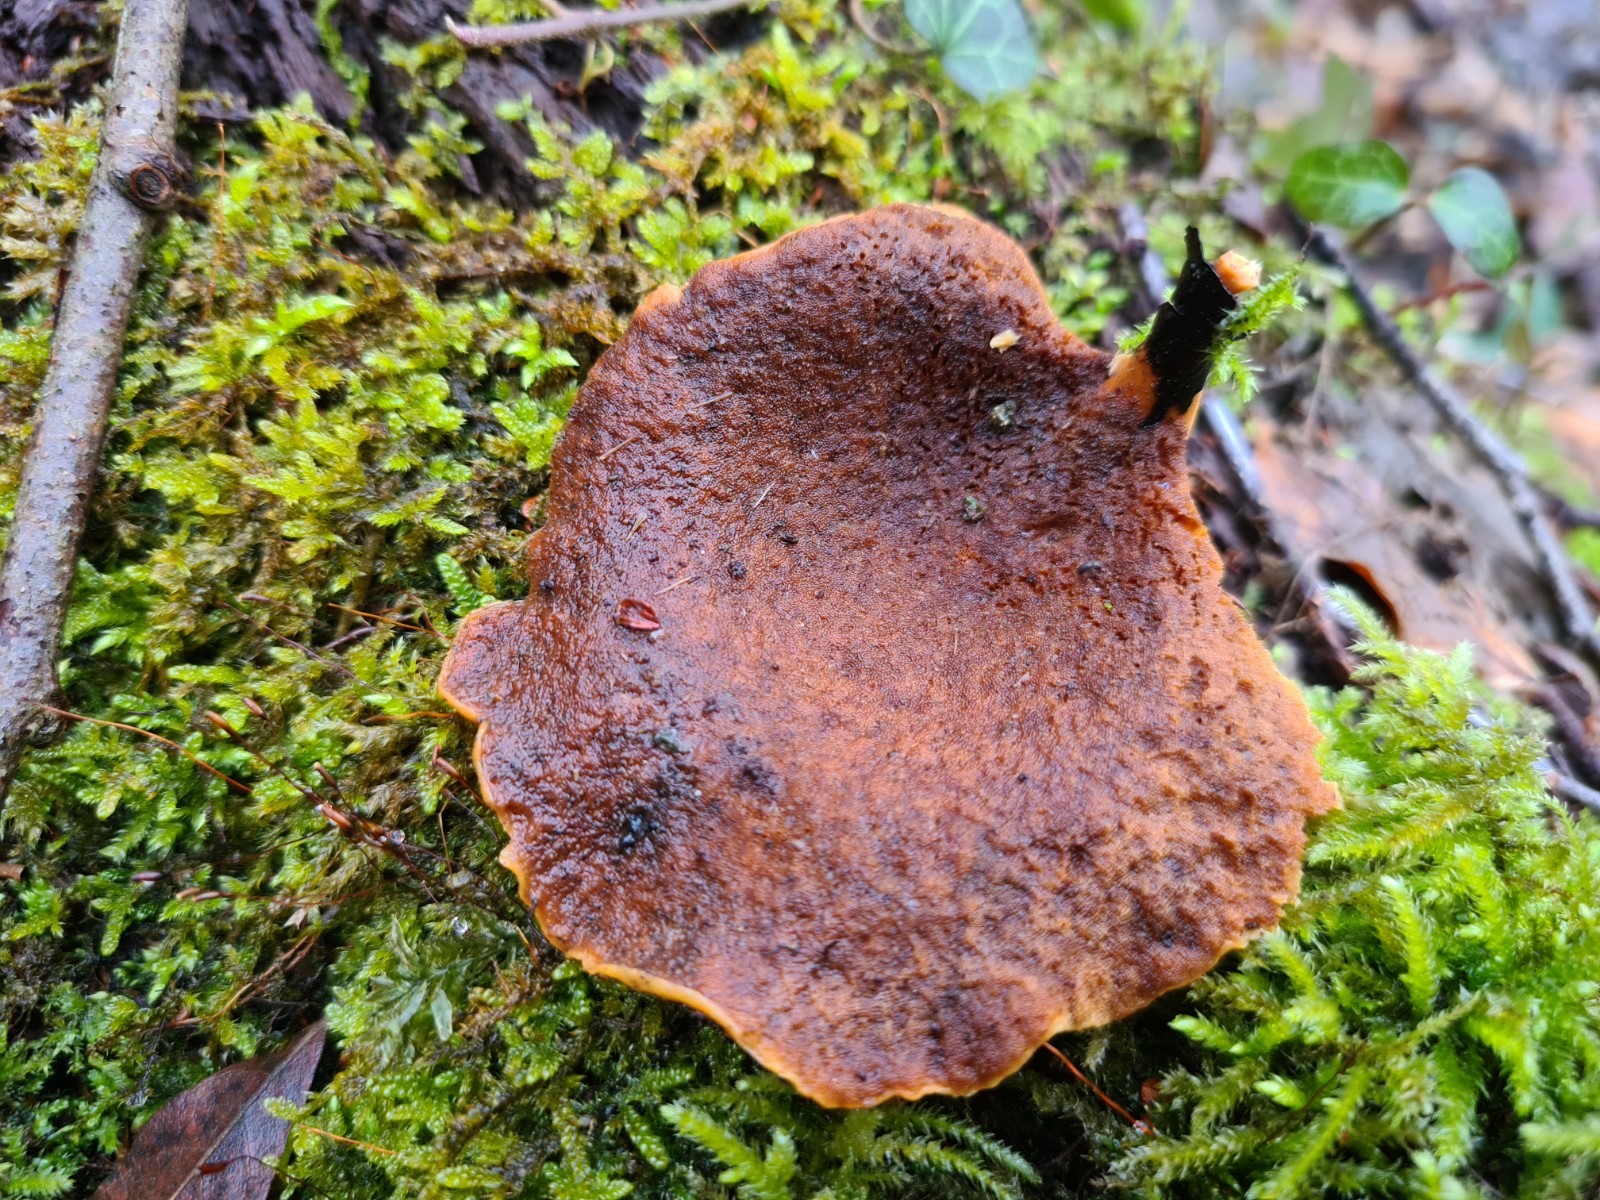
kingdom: Fungi
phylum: Basidiomycota
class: Agaricomycetes
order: Polyporales
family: Polyporaceae
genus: Cerioporus
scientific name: Cerioporus varius
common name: foranderlig stilkporesvamp
